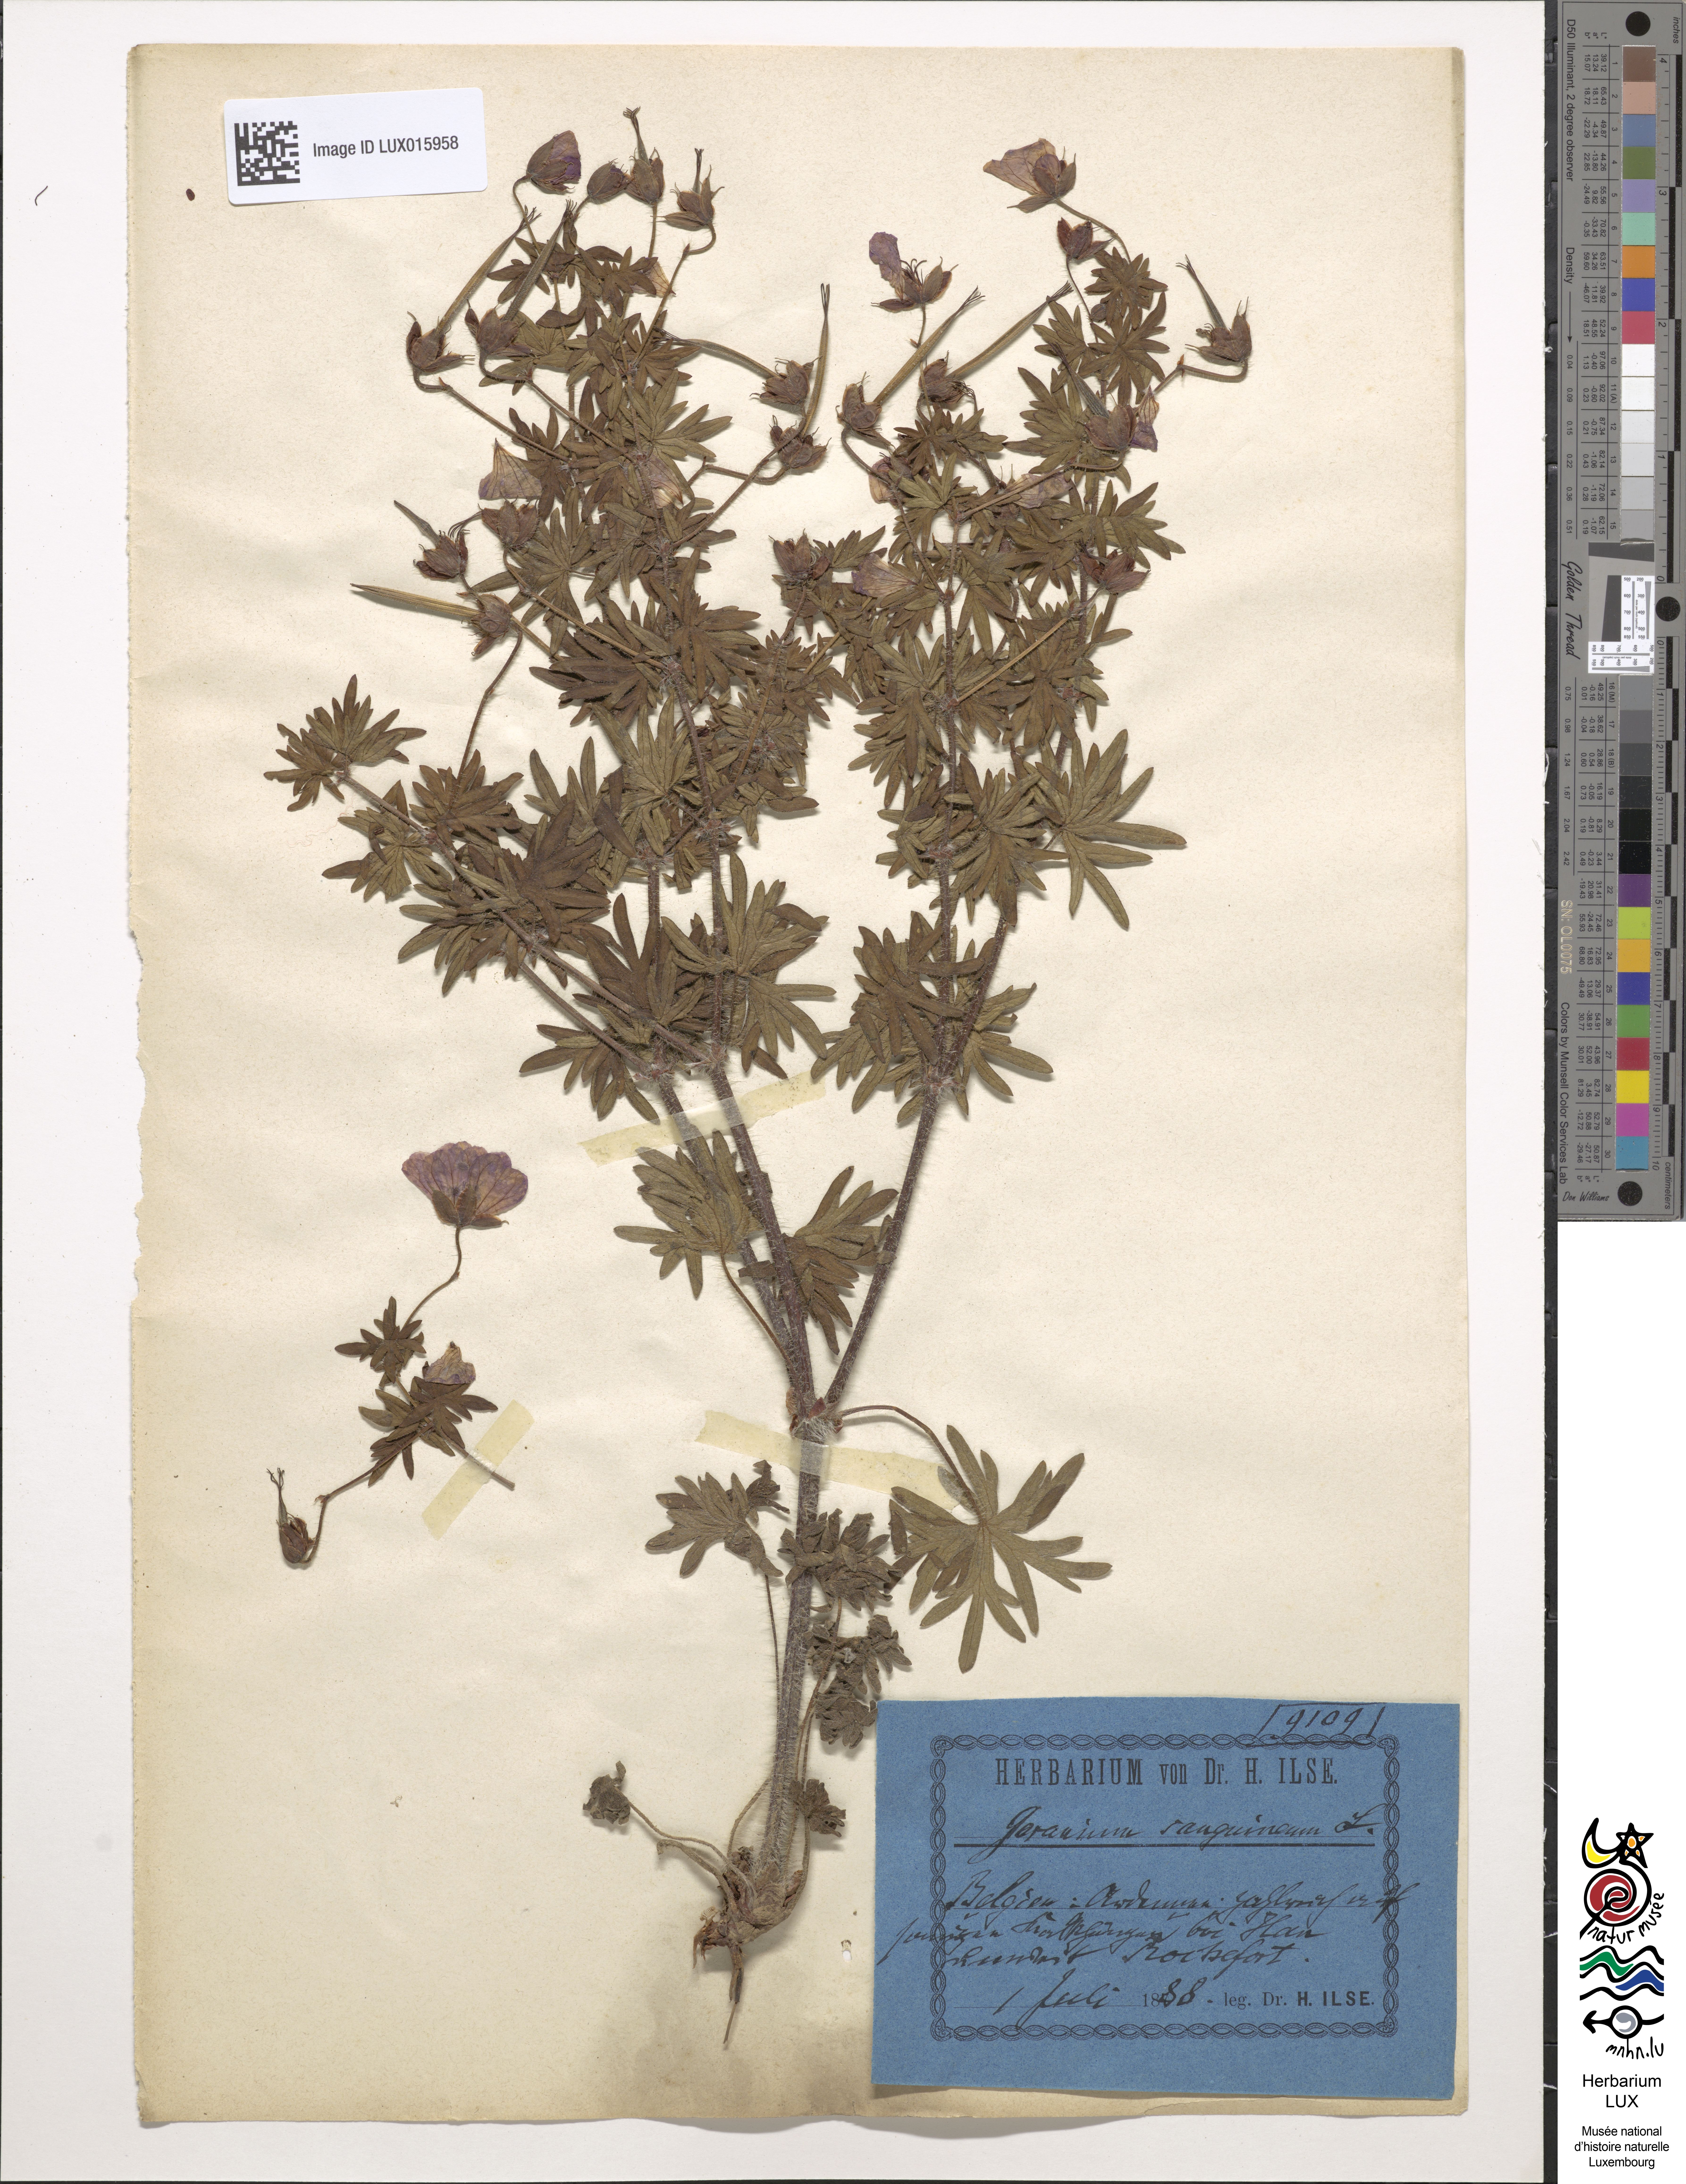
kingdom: Plantae
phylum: Tracheophyta
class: Magnoliopsida
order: Geraniales
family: Geraniaceae
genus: Geranium
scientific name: Geranium sanguineum
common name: Bloody crane's-bill
